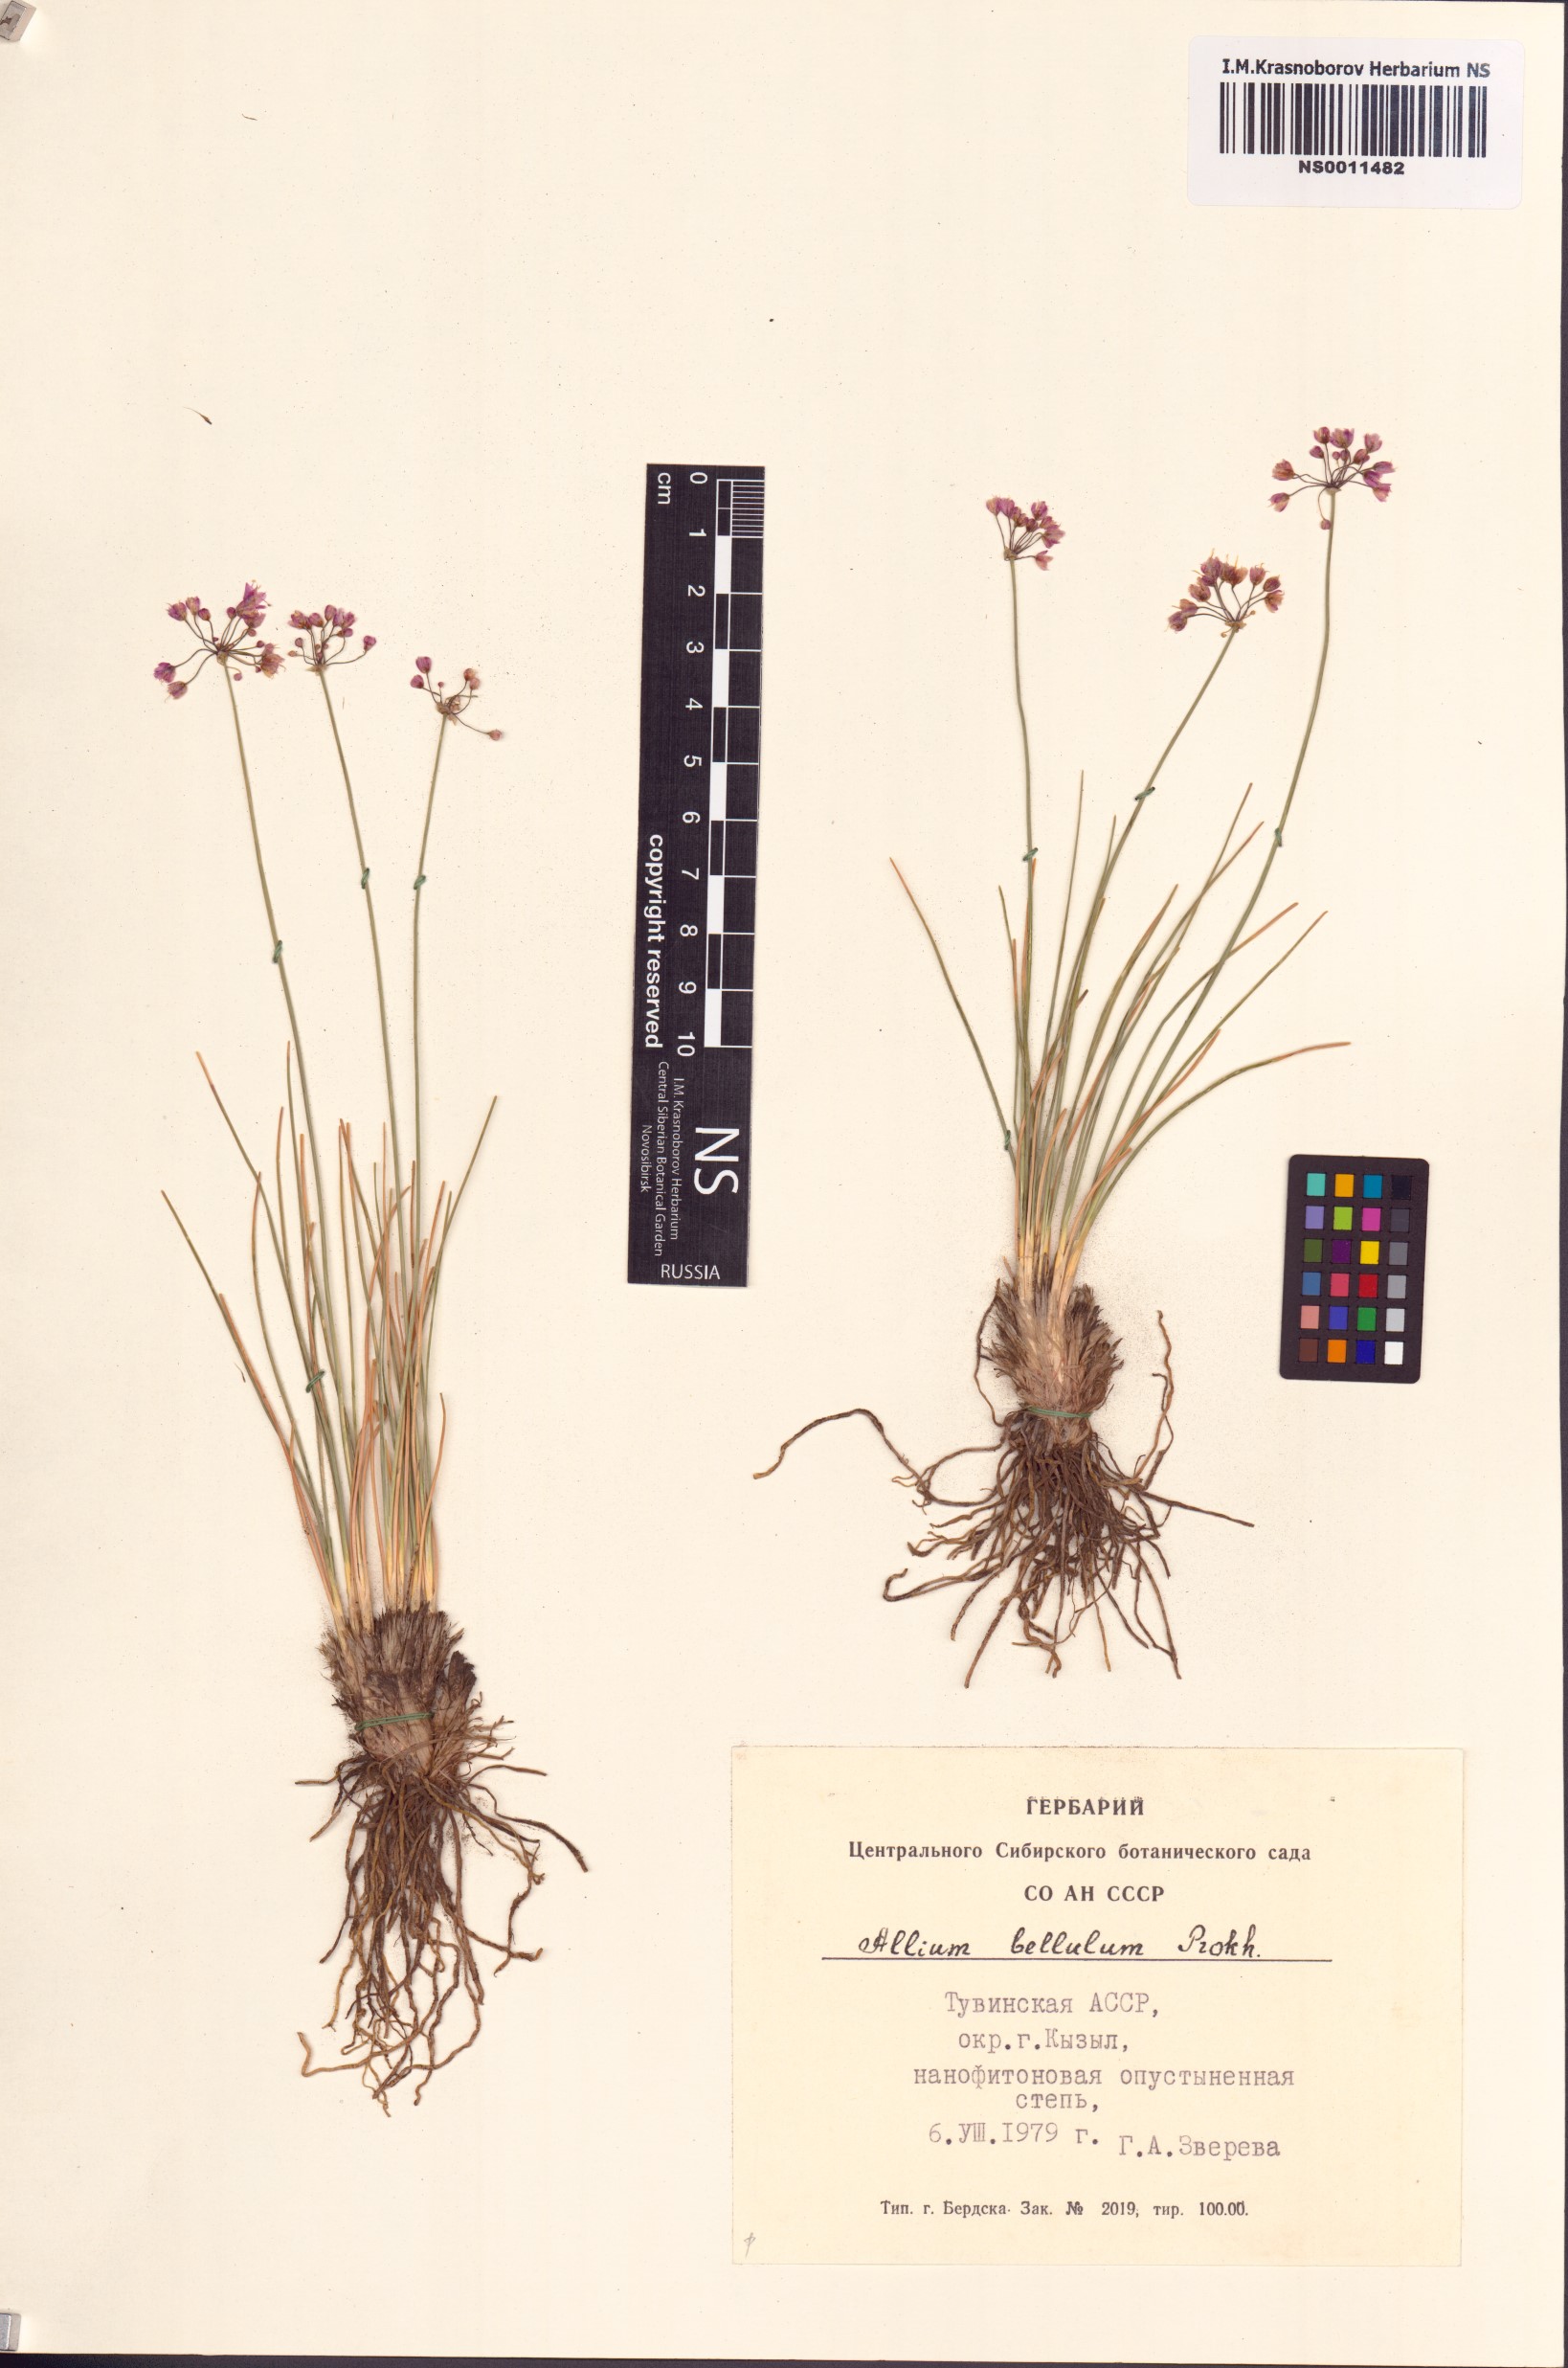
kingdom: Plantae
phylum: Tracheophyta
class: Liliopsida
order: Asparagales
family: Amaryllidaceae
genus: Allium
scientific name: Allium bellulum
